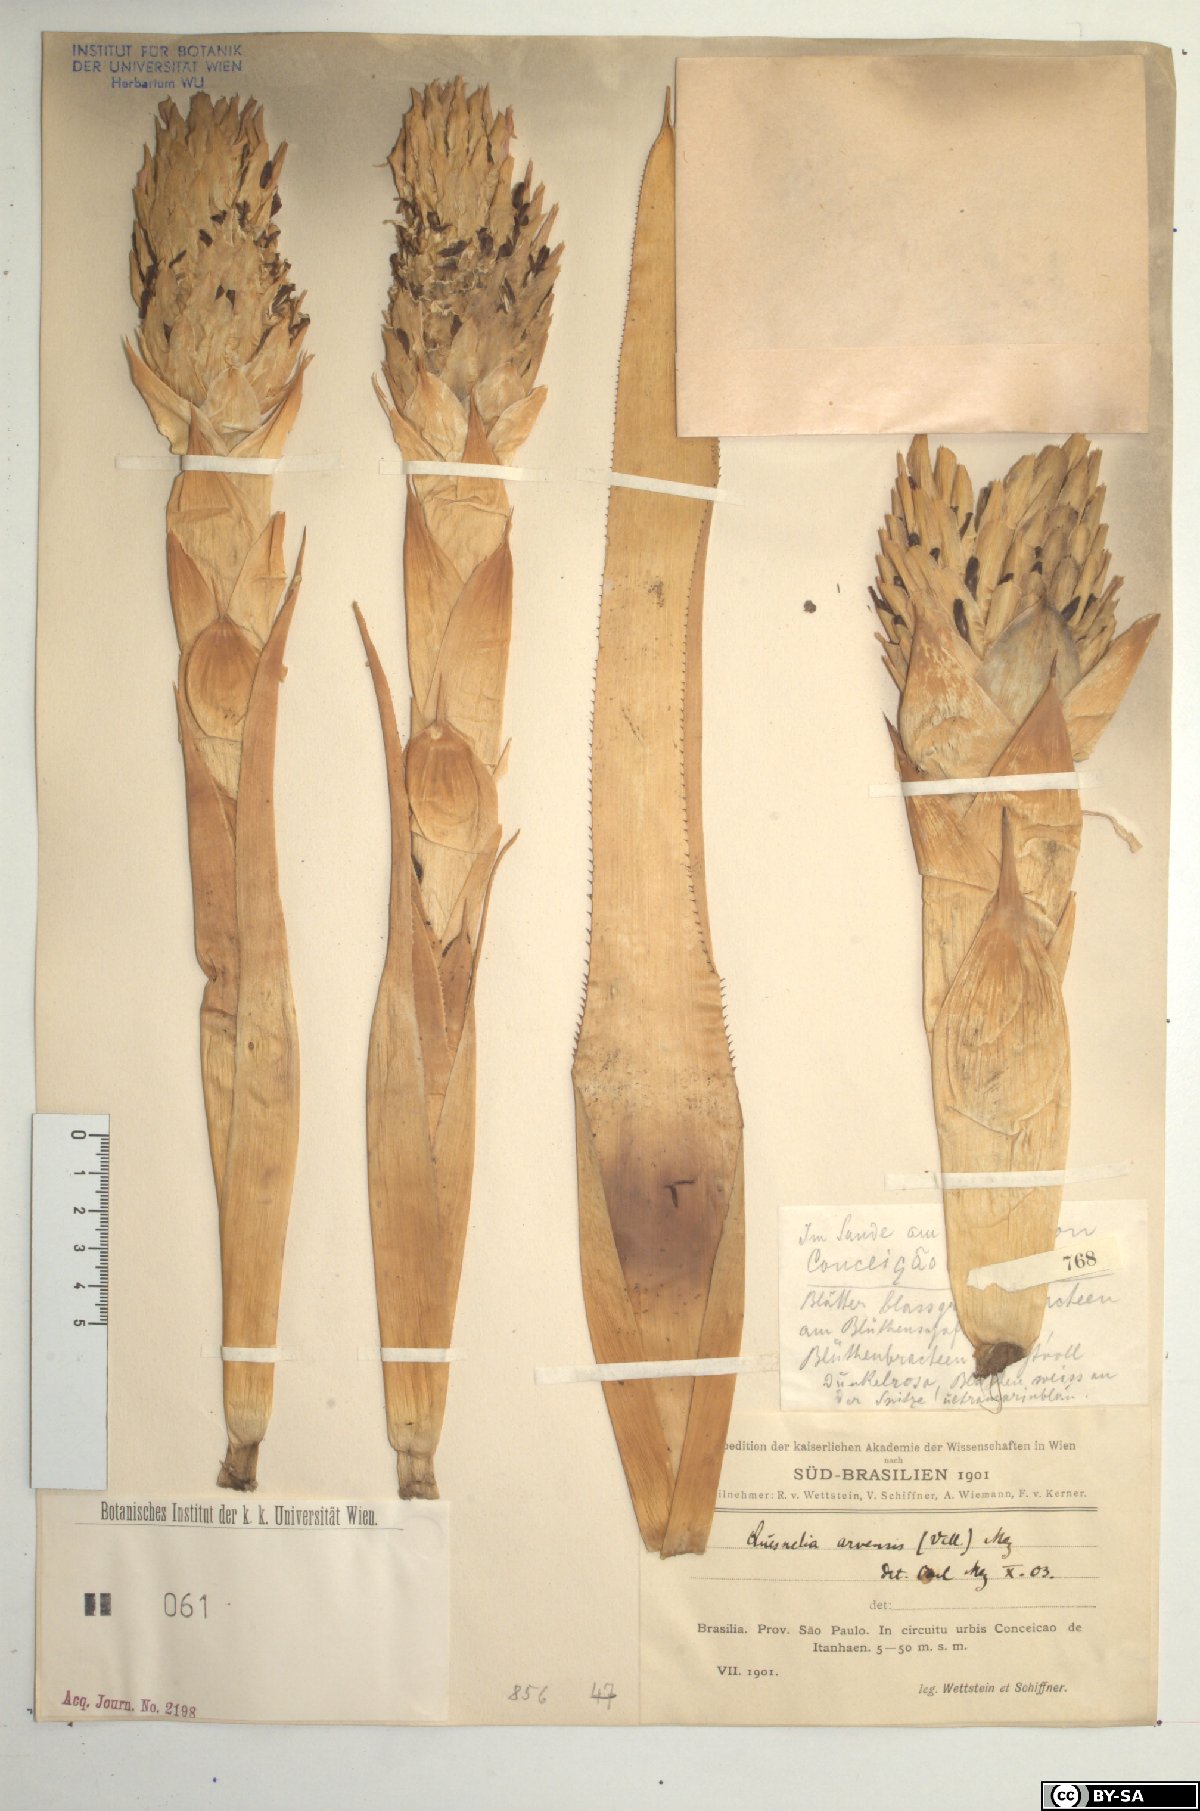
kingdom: Plantae
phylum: Tracheophyta
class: Liliopsida
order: Poales
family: Bromeliaceae
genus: Quesnelia
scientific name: Quesnelia arvensis
